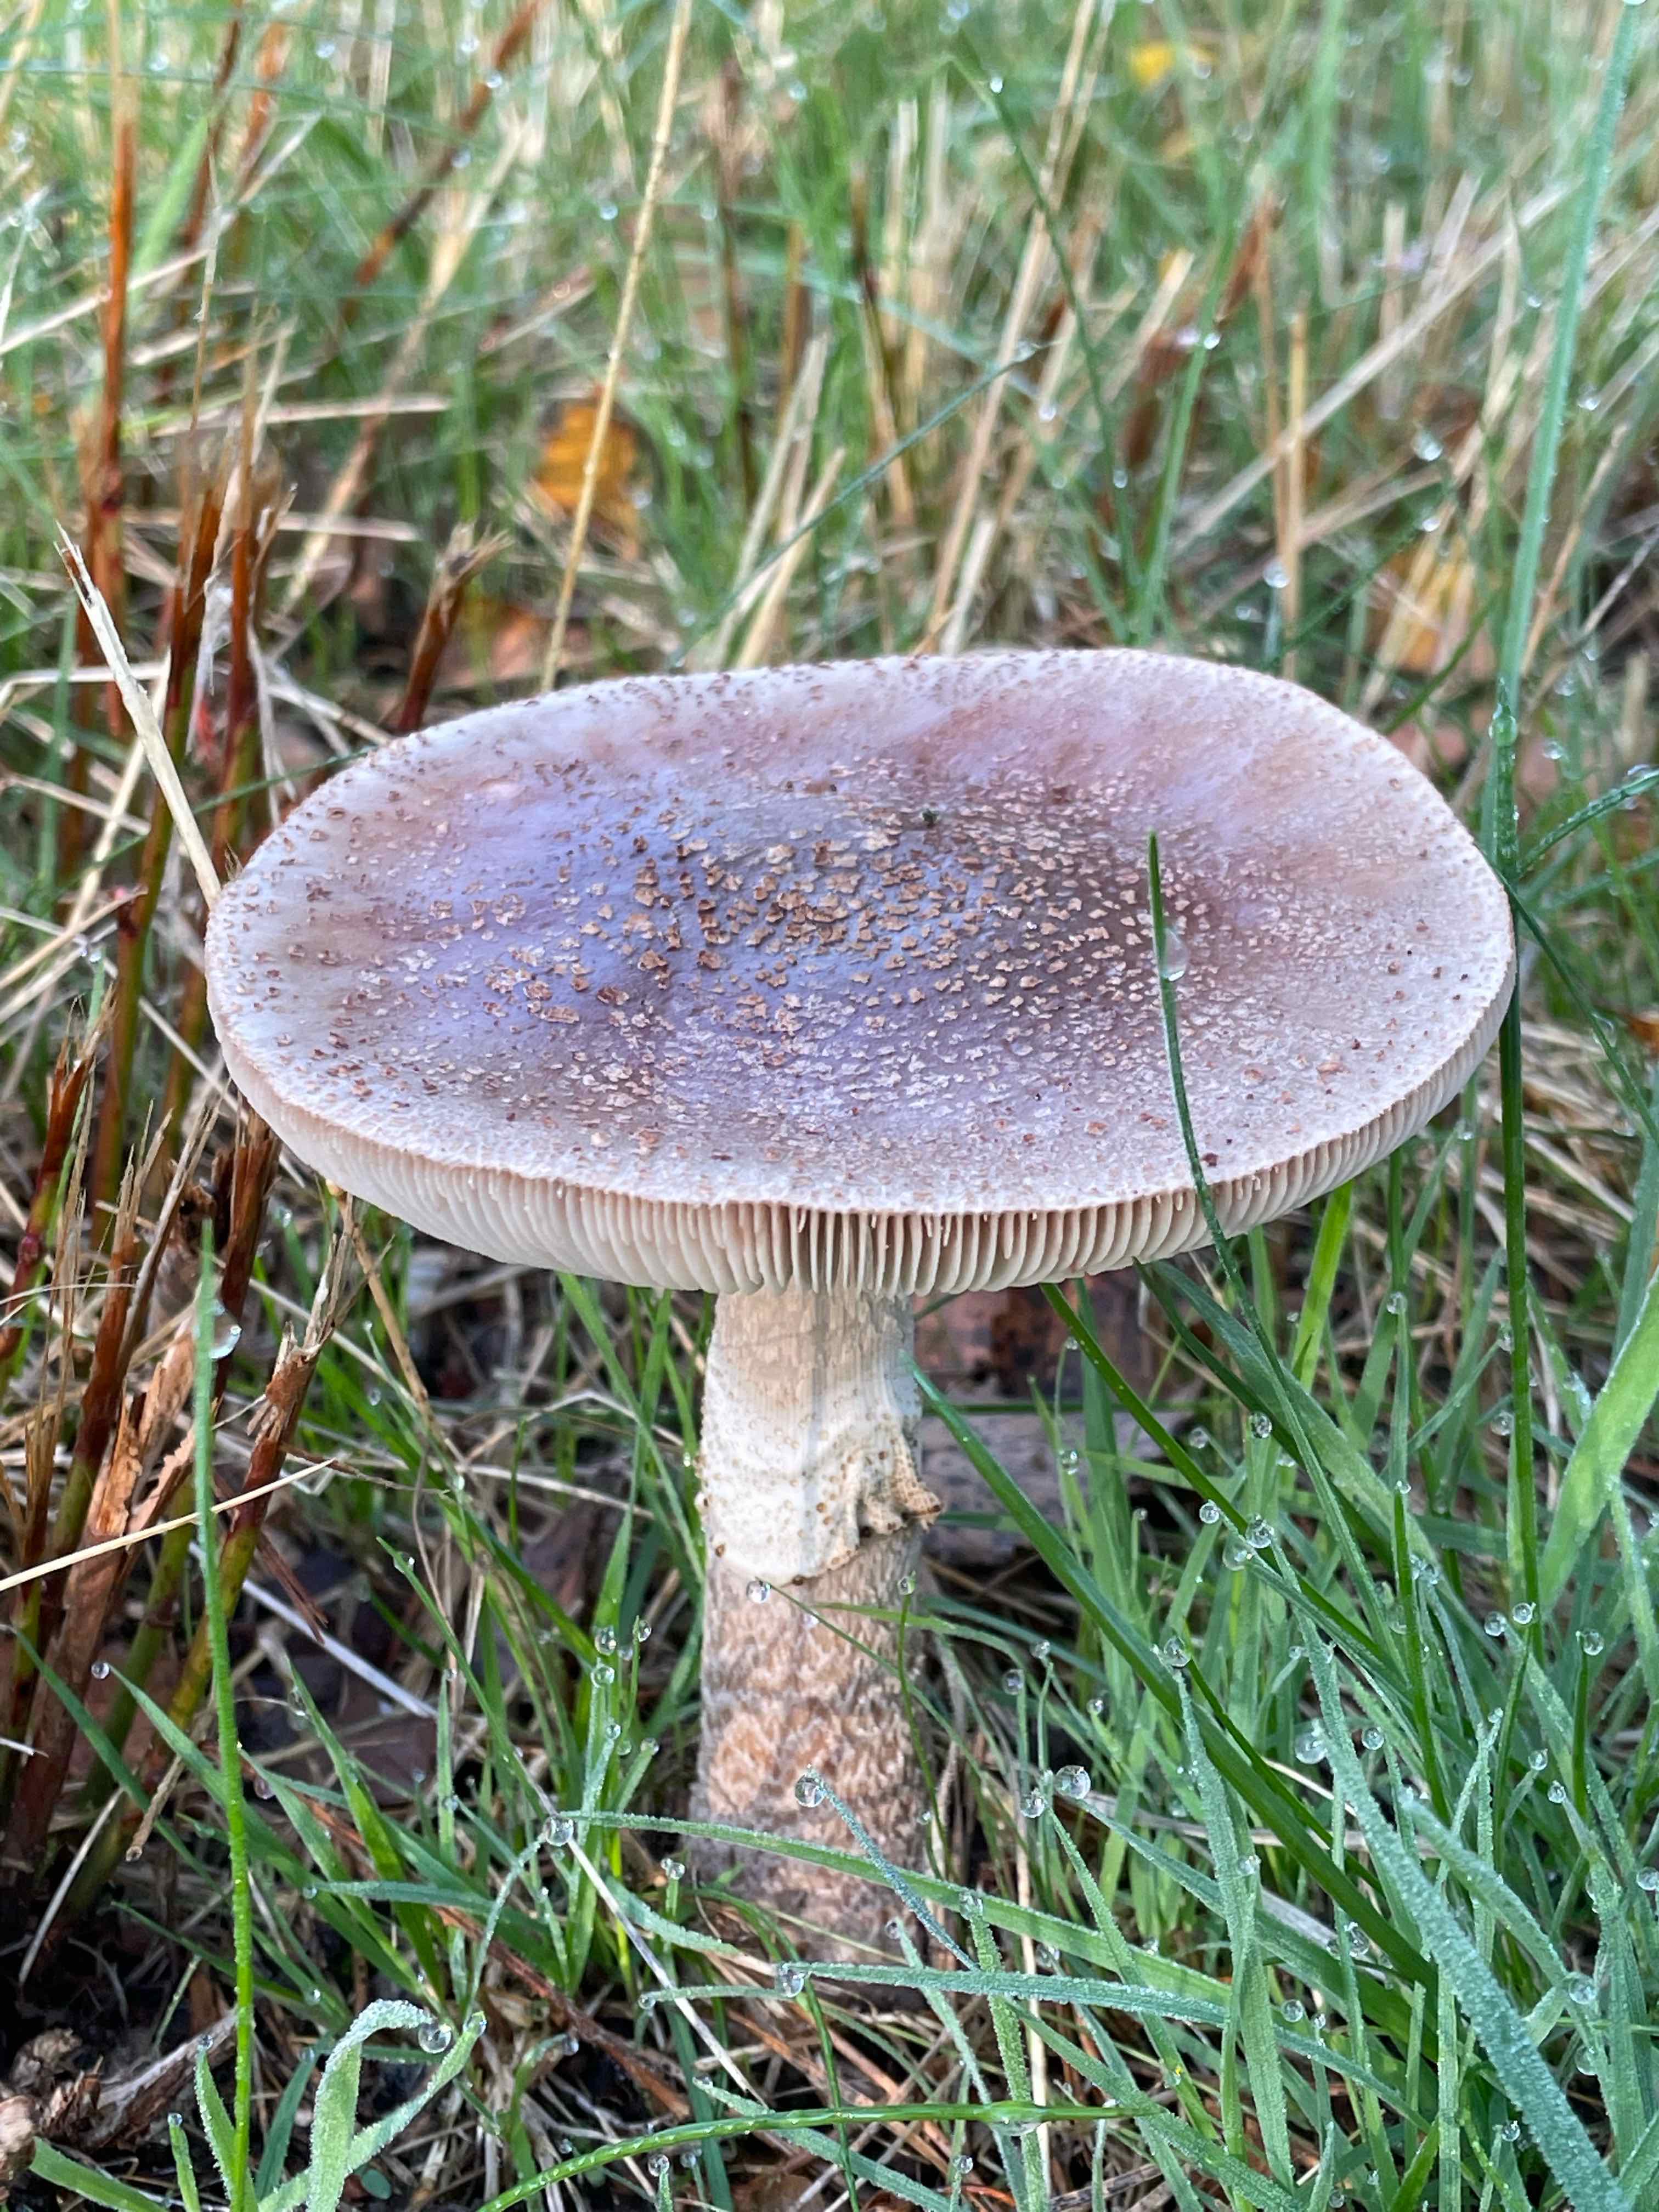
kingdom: Fungi
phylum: Basidiomycota
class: Agaricomycetes
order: Agaricales
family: Amanitaceae
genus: Amanita
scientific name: Amanita rubescens
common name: rødmende fluesvamp
